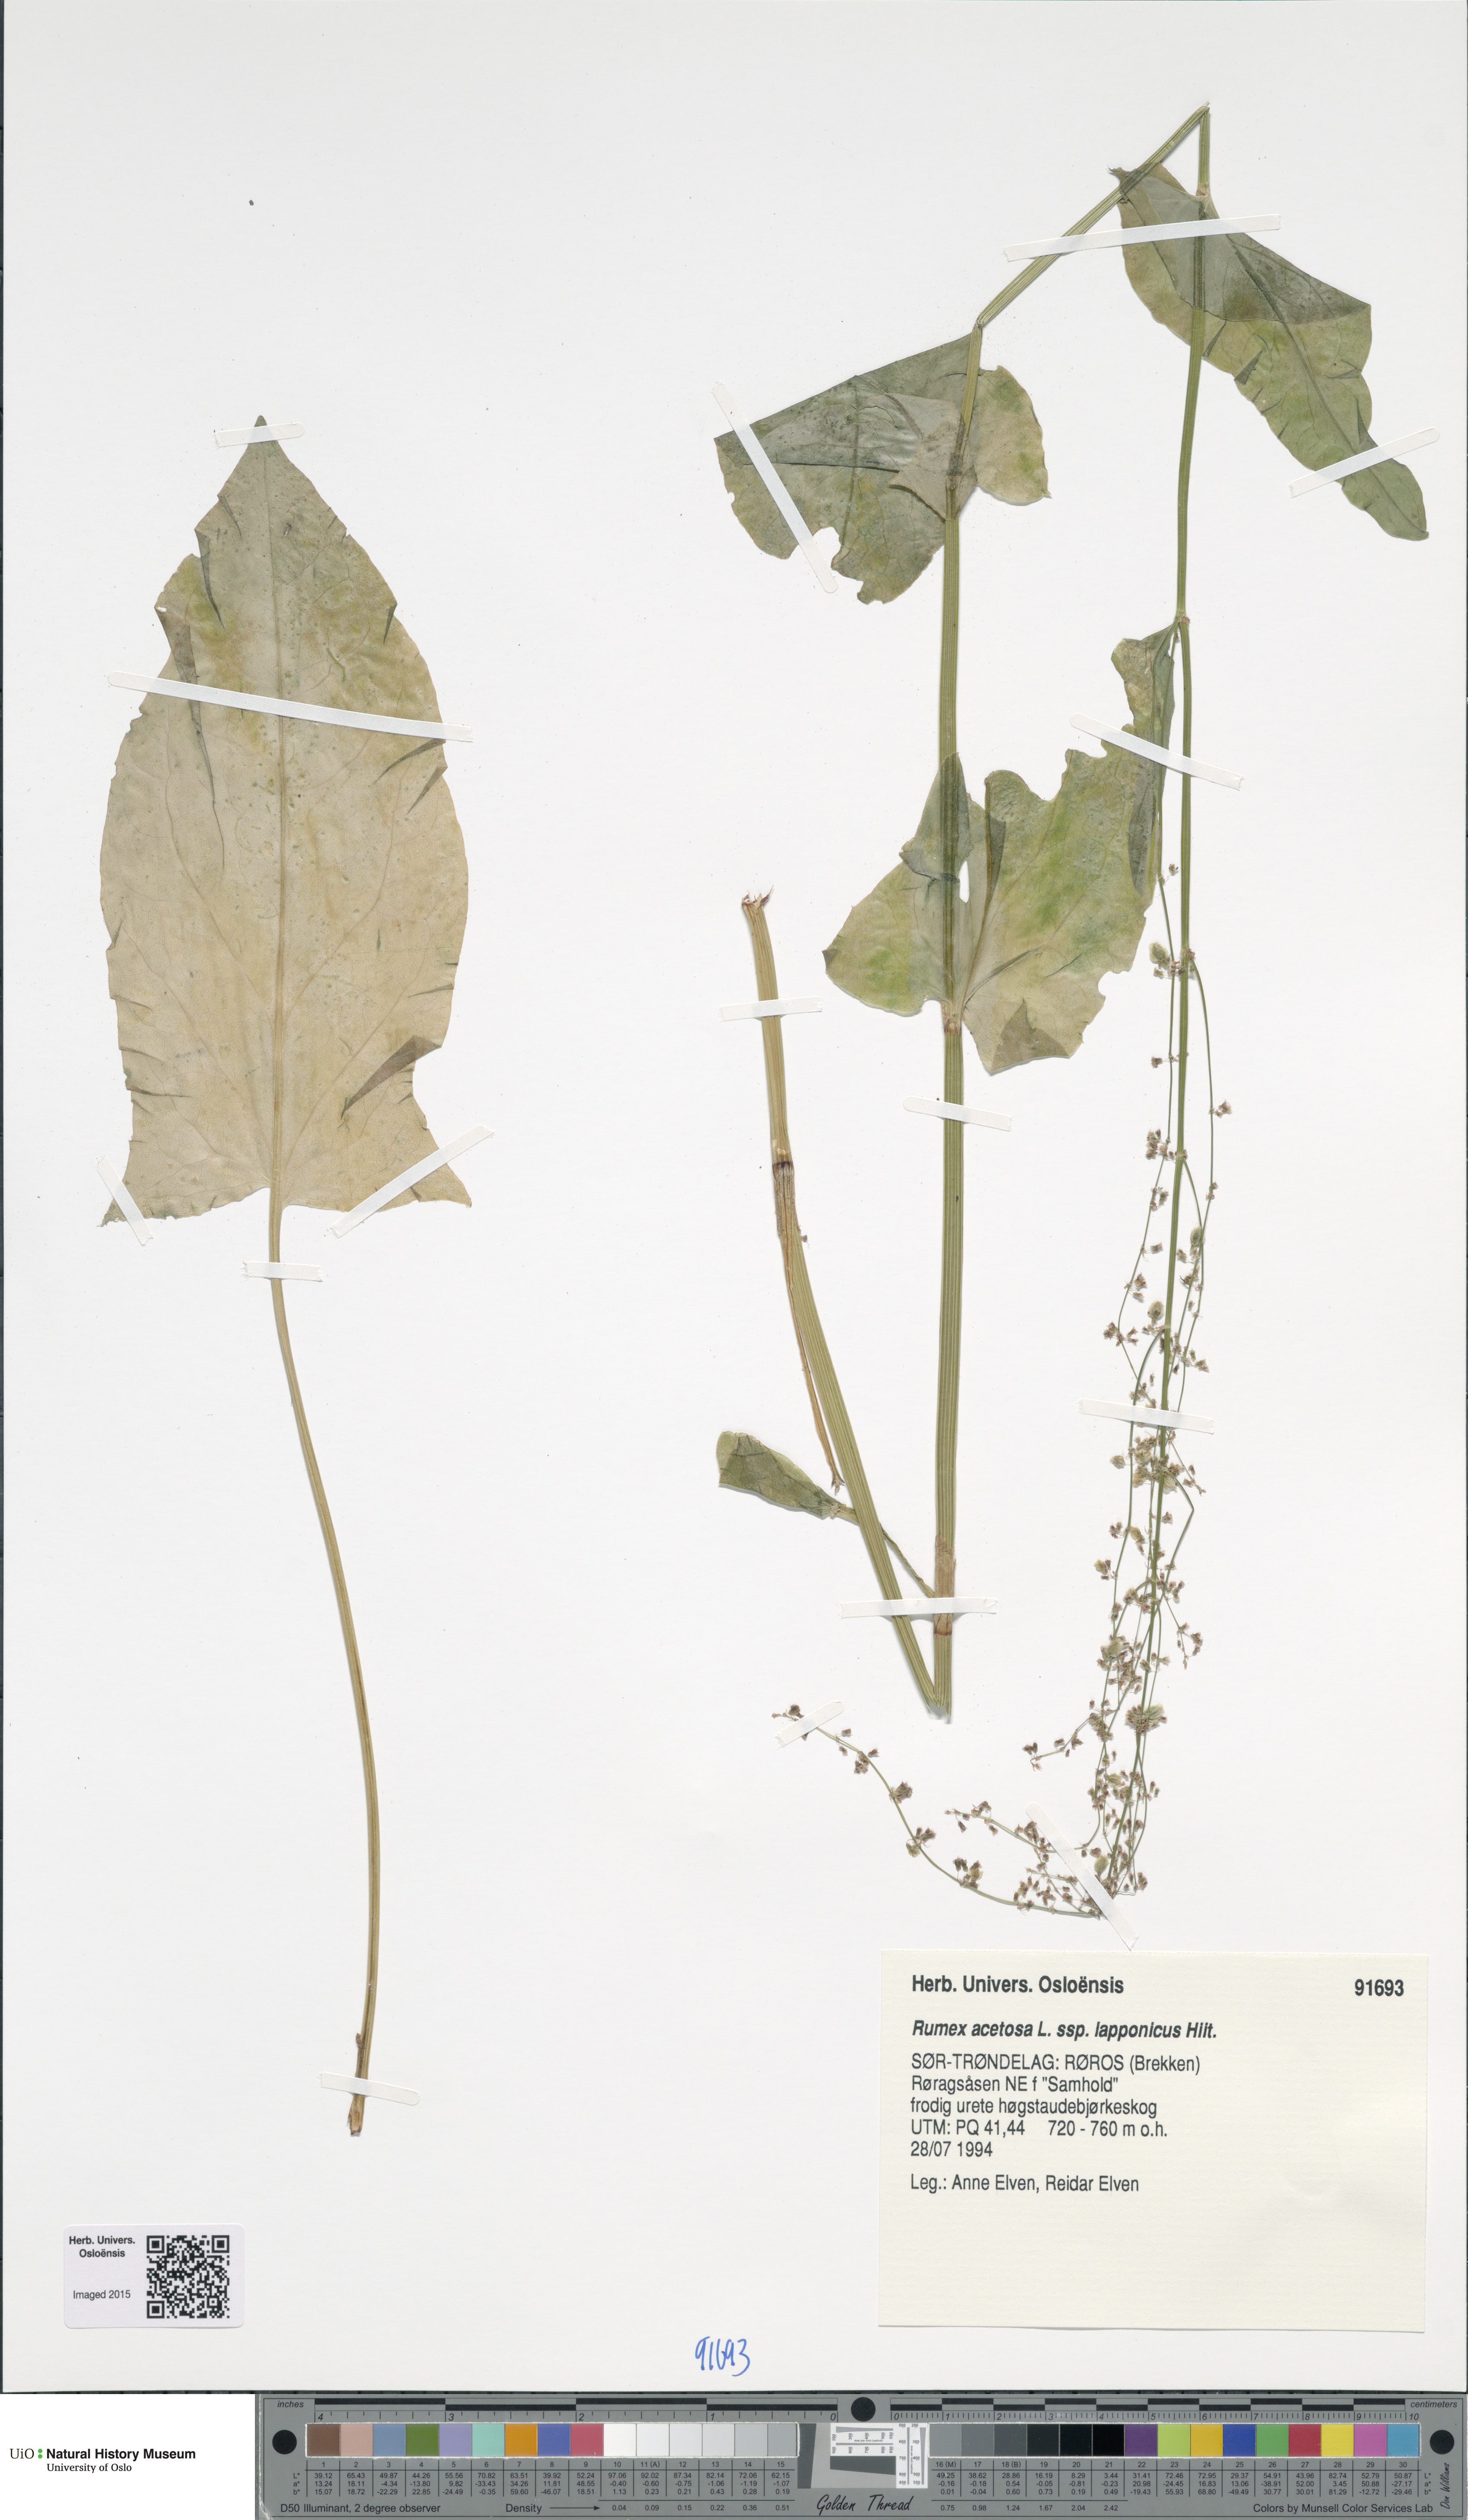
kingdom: Plantae
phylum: Tracheophyta
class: Magnoliopsida
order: Caryophyllales
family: Polygonaceae
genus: Rumex
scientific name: Rumex lapponicus
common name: Lapland mountain sorrel
